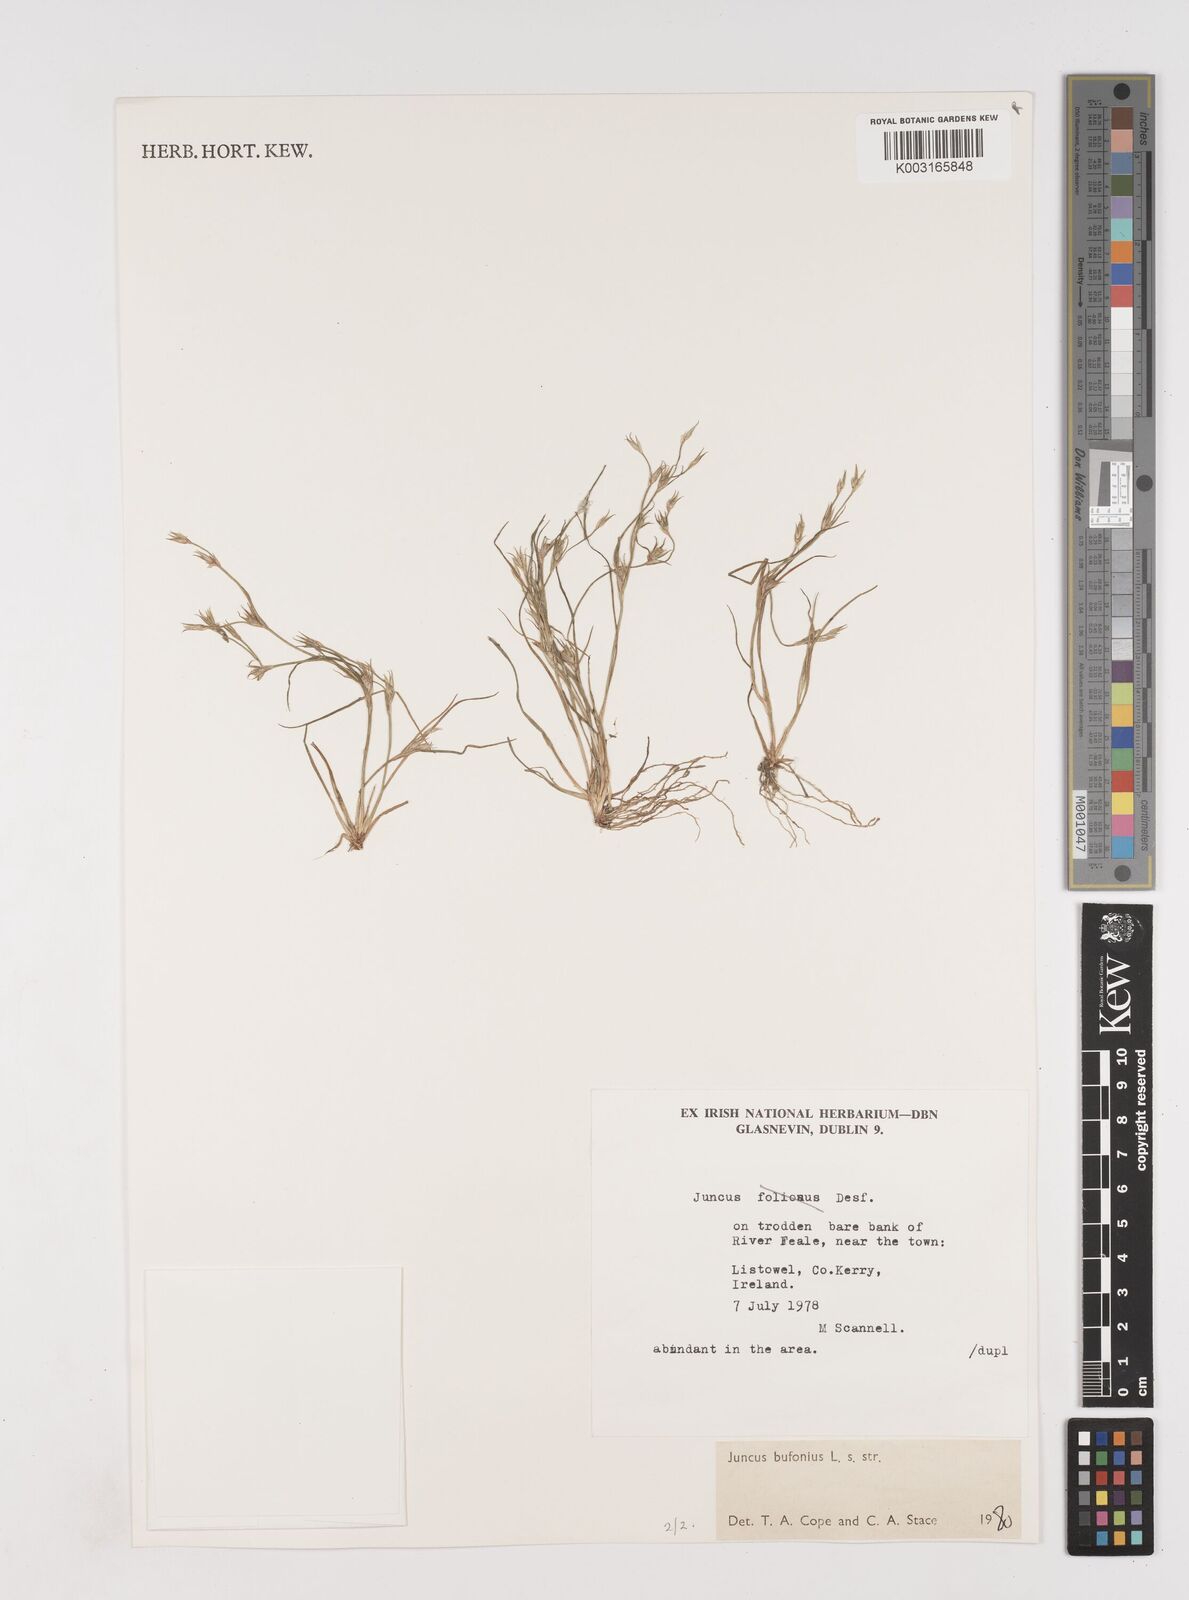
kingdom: Plantae
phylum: Tracheophyta
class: Liliopsida
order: Poales
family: Juncaceae
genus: Juncus
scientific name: Juncus bufonius
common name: Toad rush
